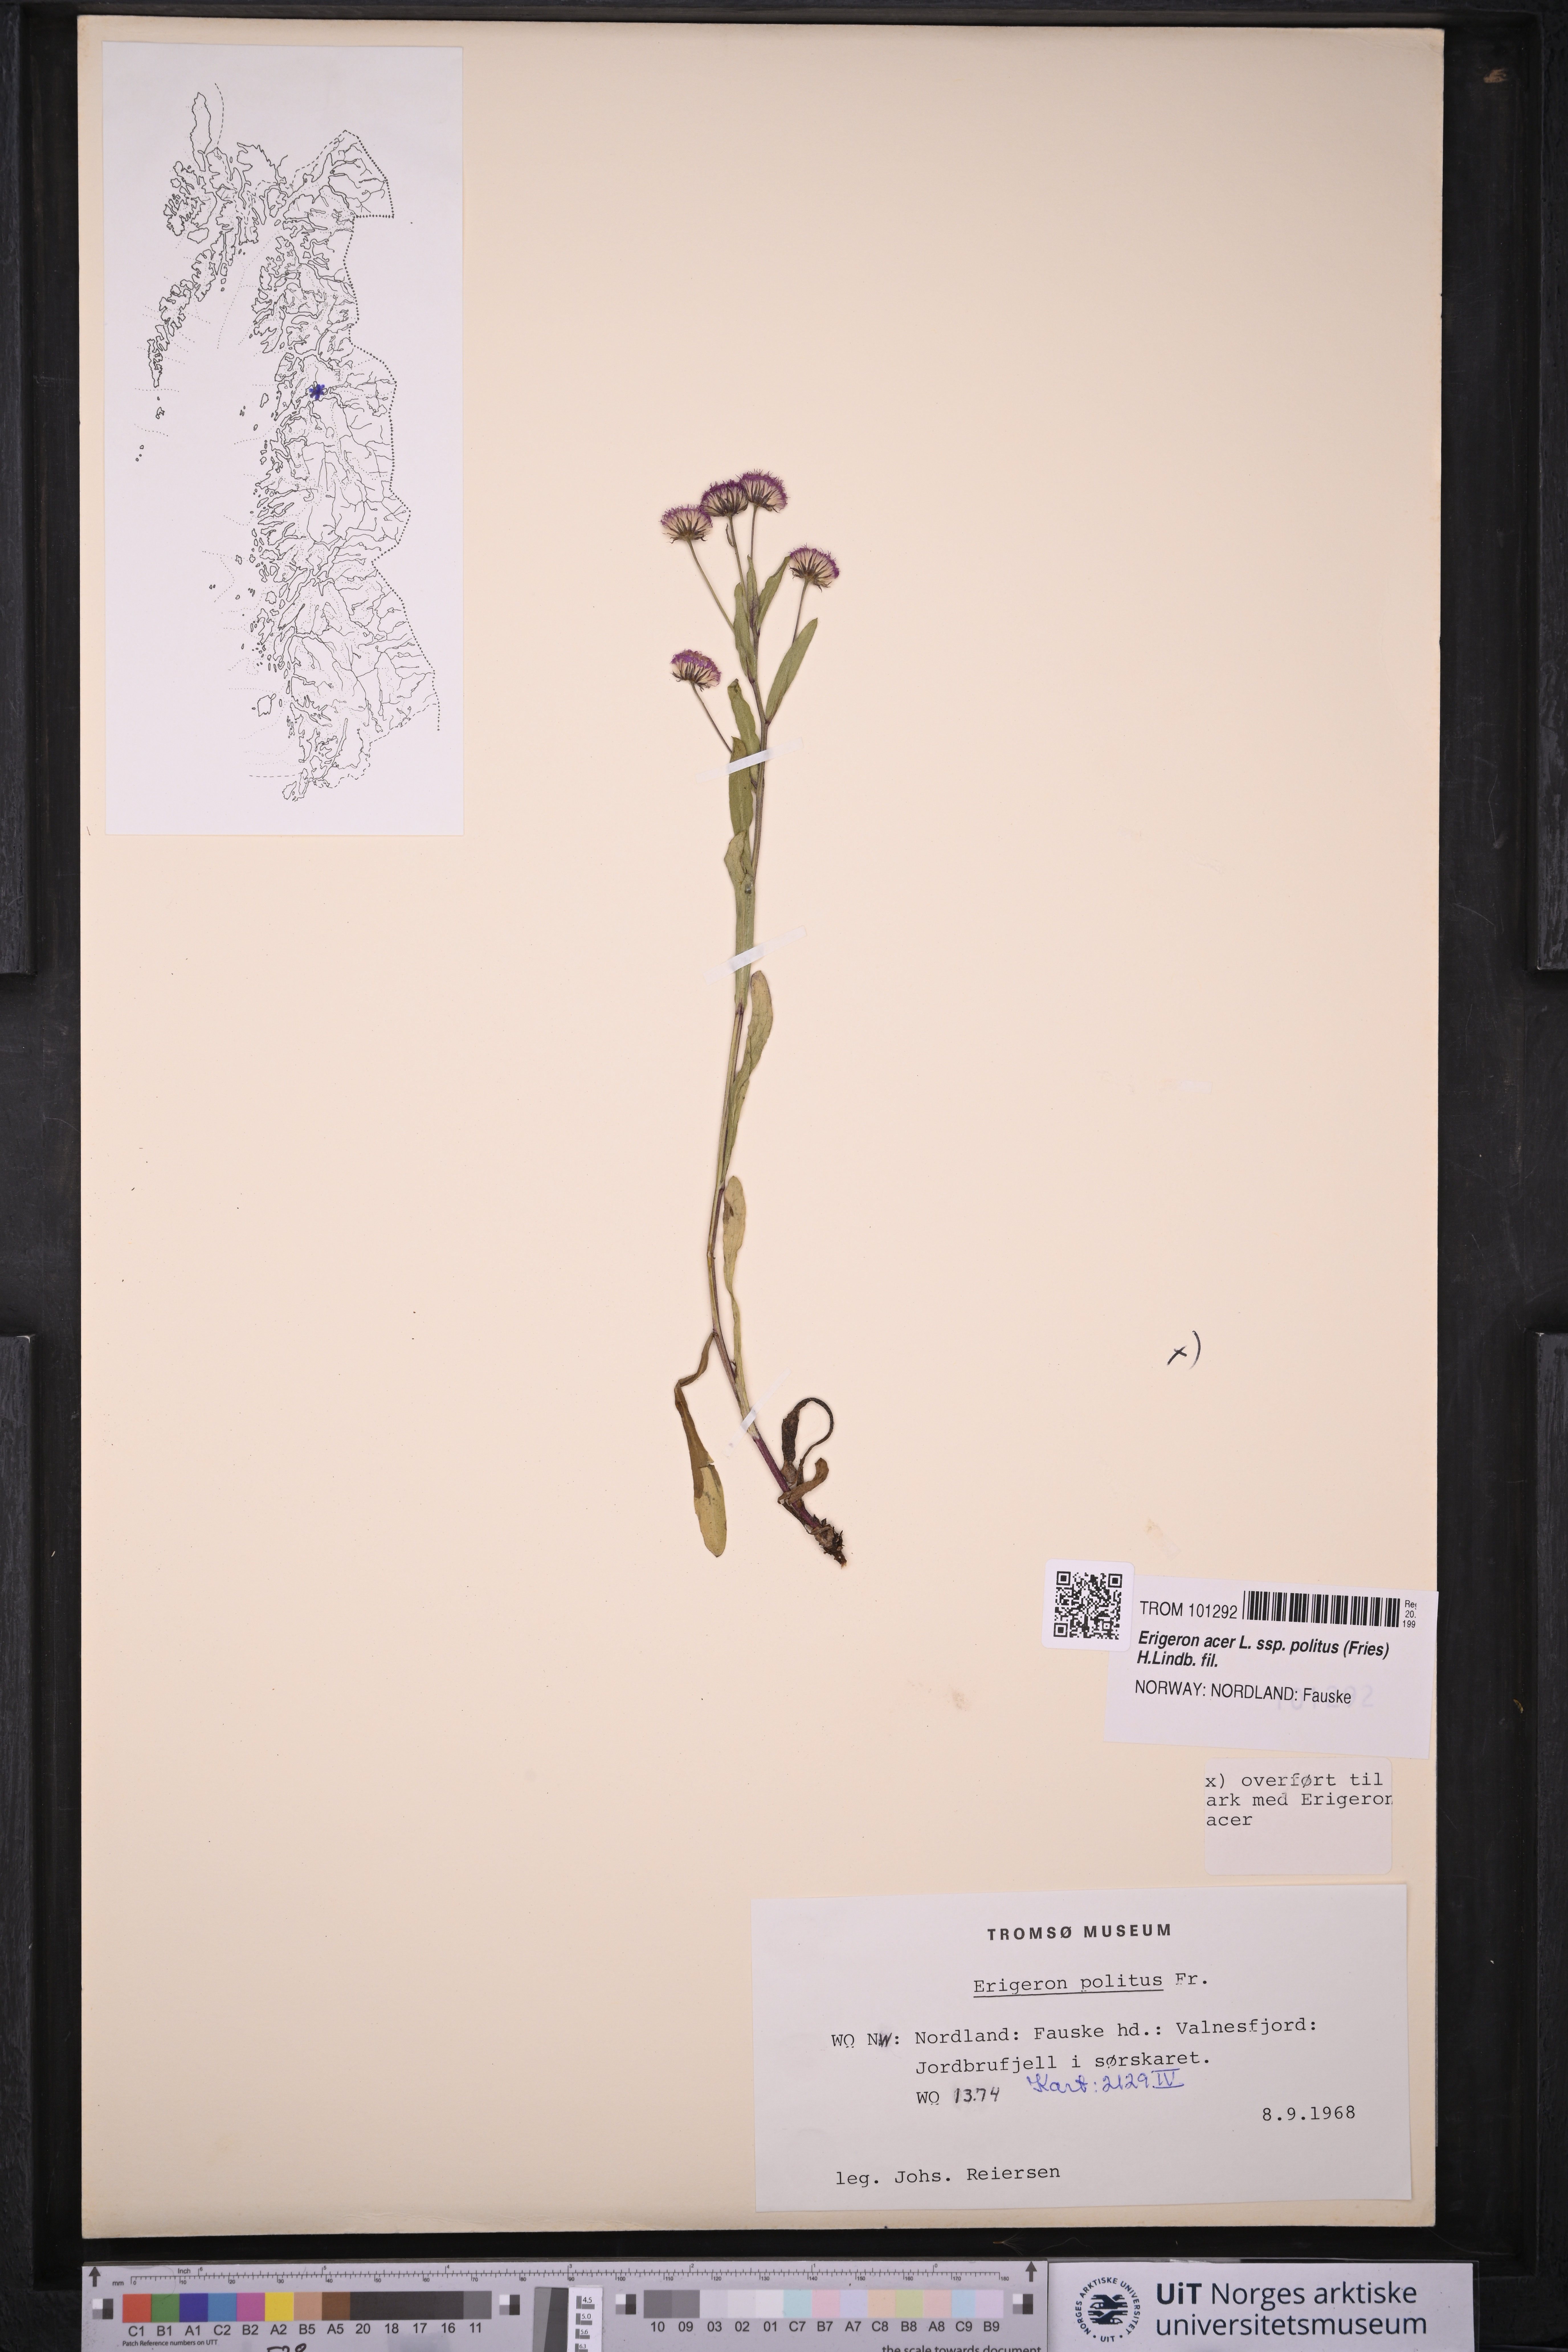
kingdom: Plantae
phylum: Tracheophyta
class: Magnoliopsida
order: Asterales
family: Asteraceae
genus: Erigeron
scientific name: Erigeron politus
